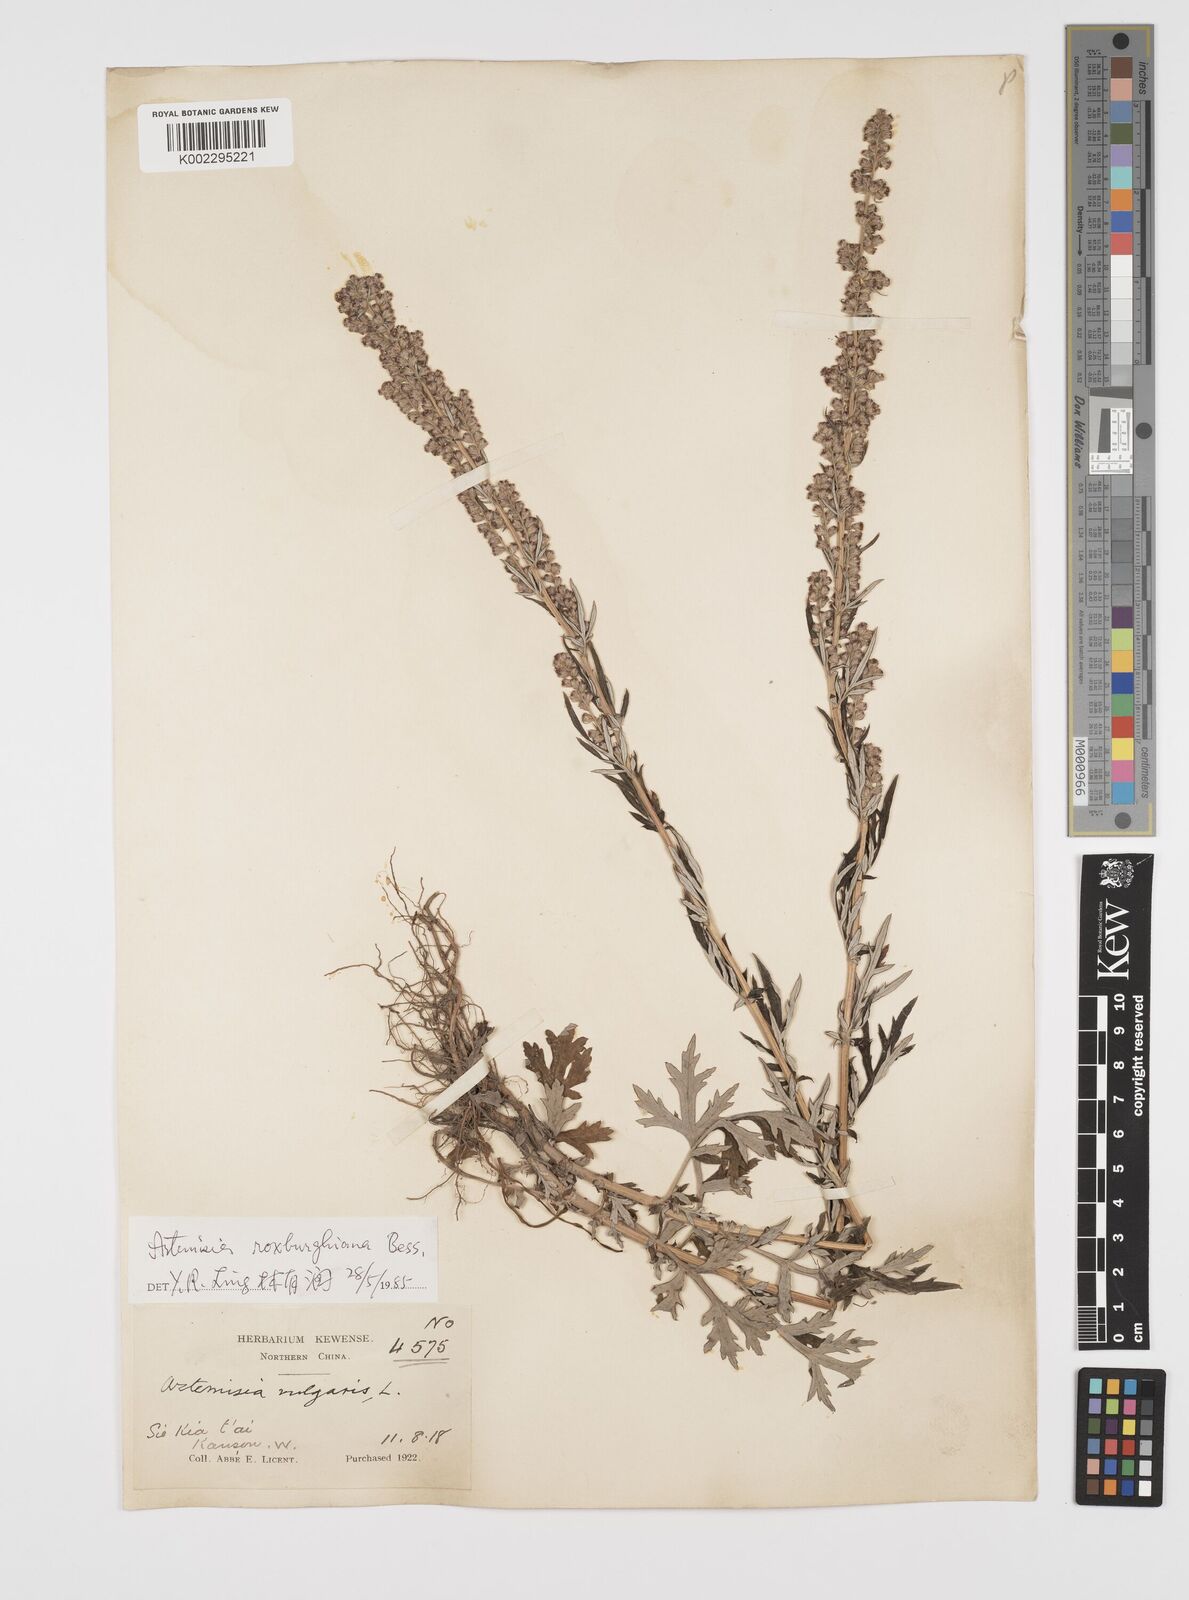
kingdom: Plantae
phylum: Tracheophyta
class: Magnoliopsida
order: Asterales
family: Asteraceae
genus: Artemisia
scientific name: Artemisia roxburghiana
